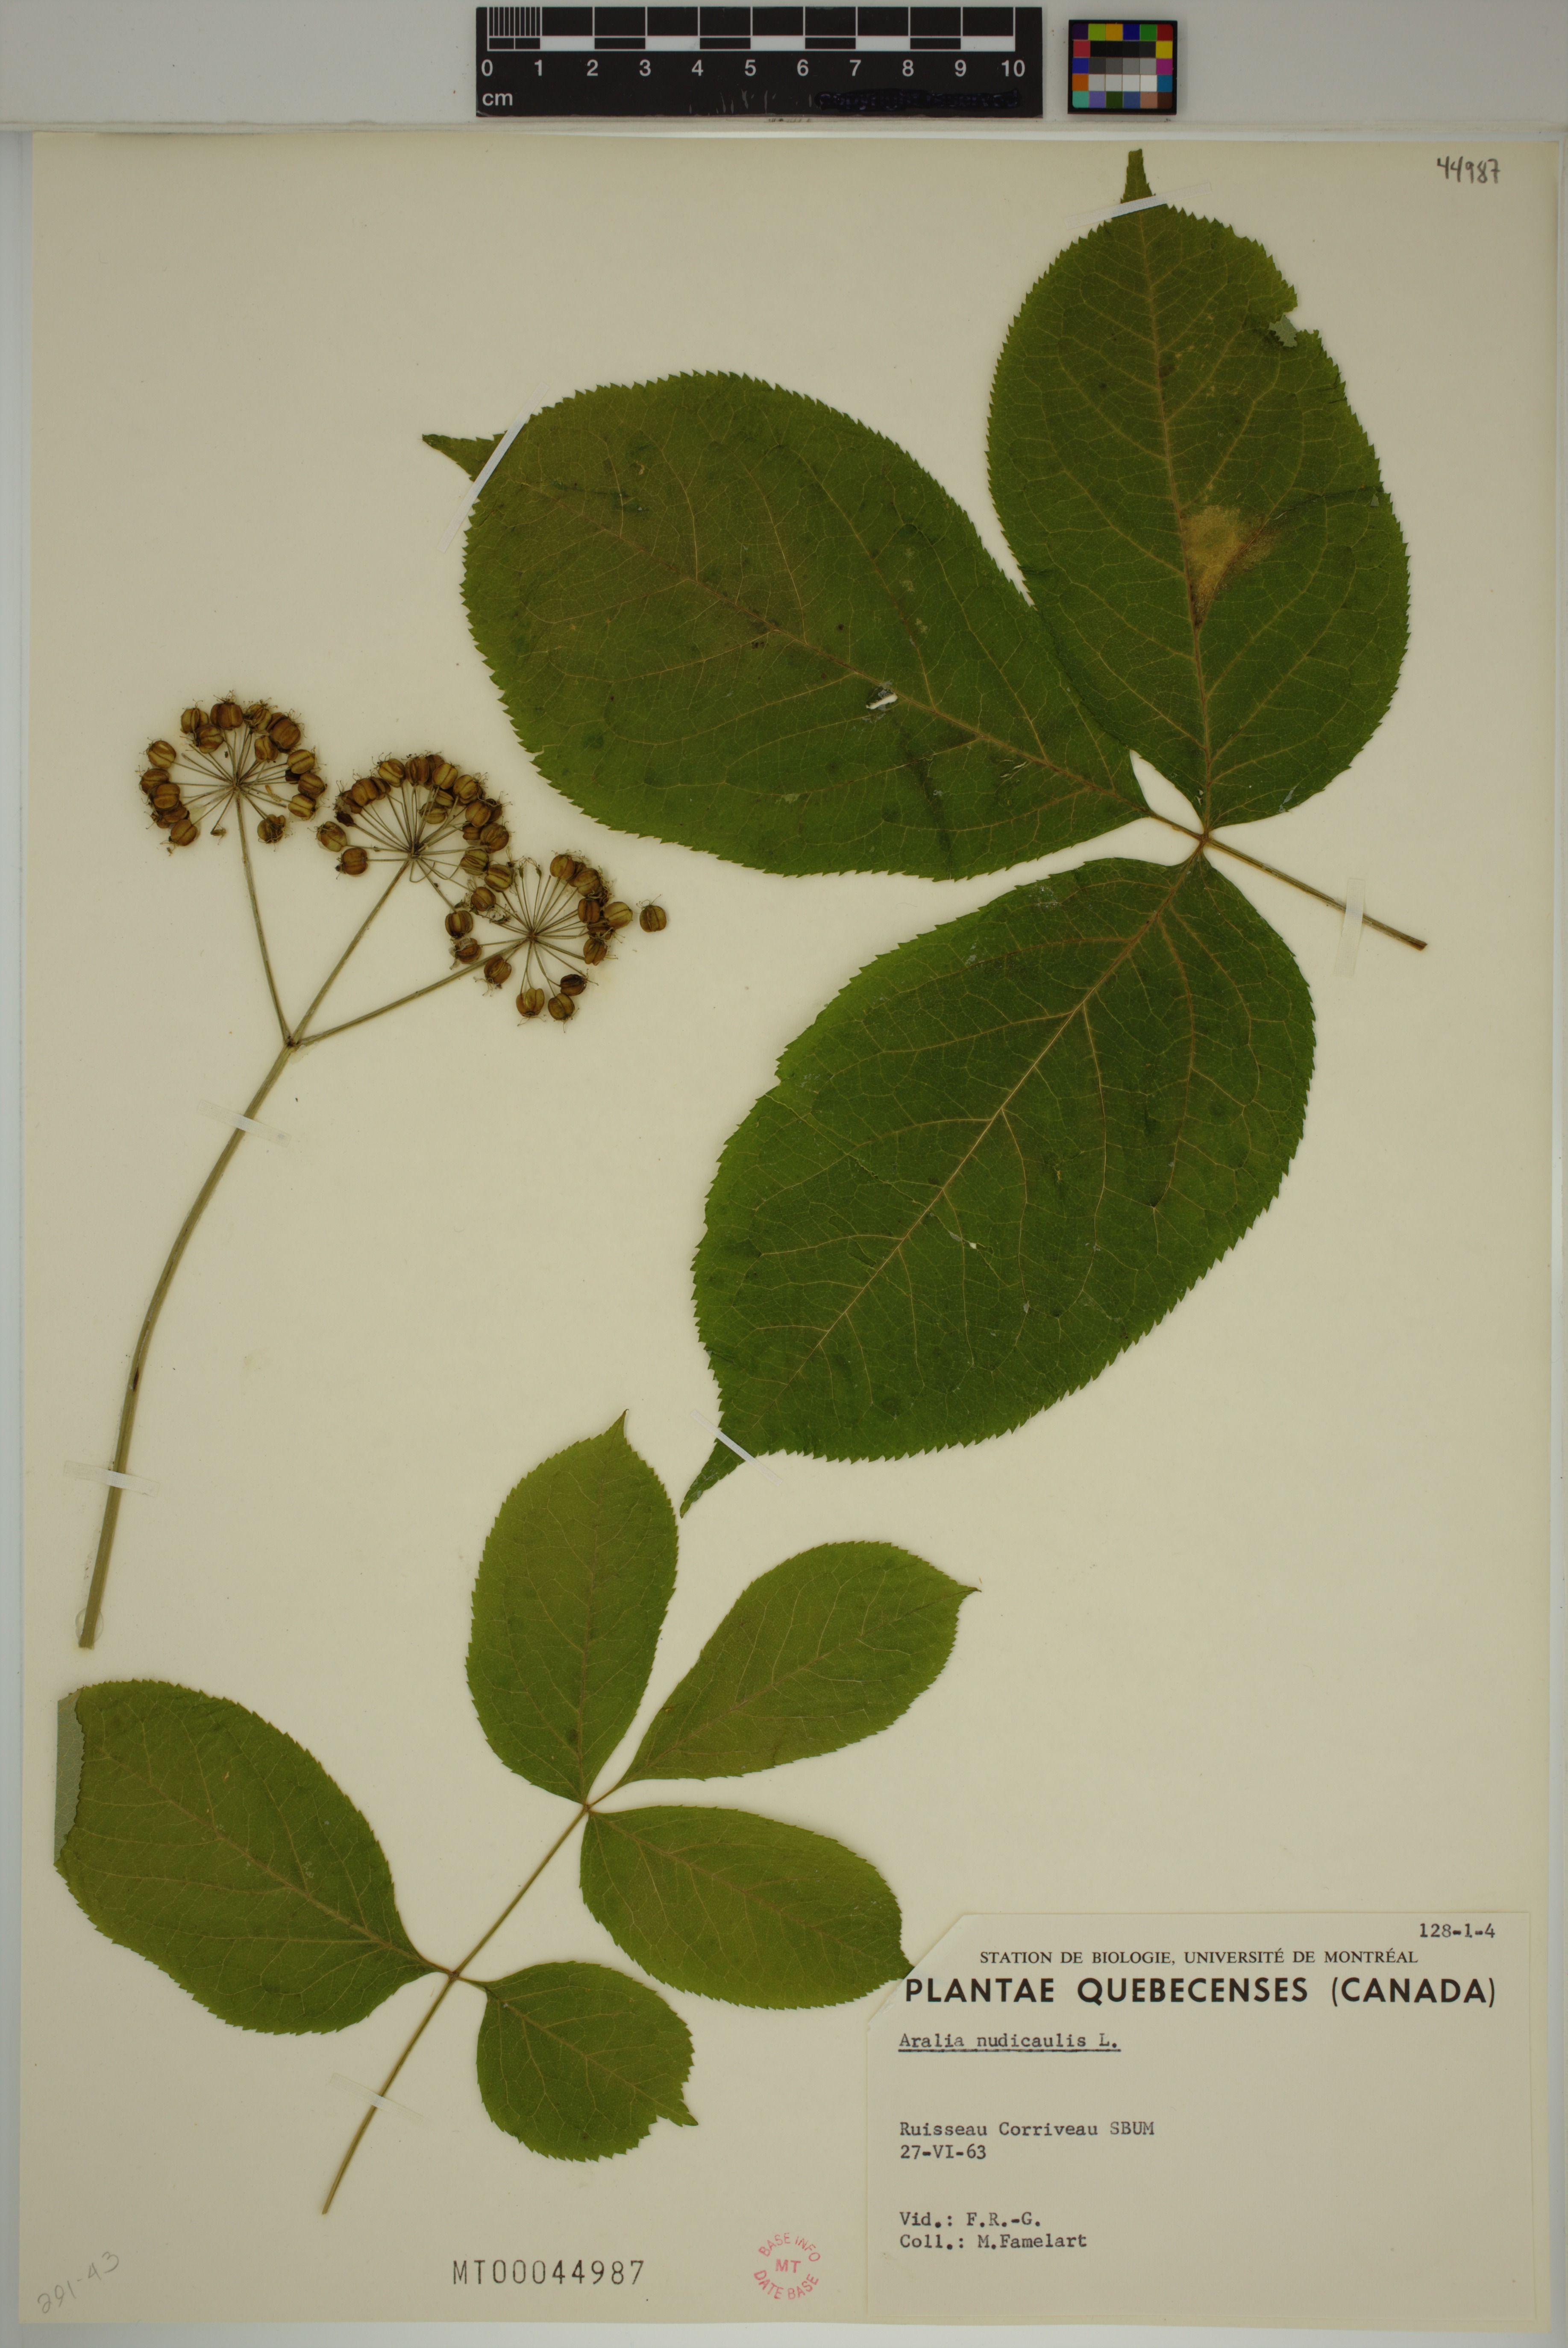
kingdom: Plantae
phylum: Tracheophyta
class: Magnoliopsida
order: Apiales
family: Araliaceae
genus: Aralia
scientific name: Aralia nudicaulis
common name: Wild sarsaparilla
